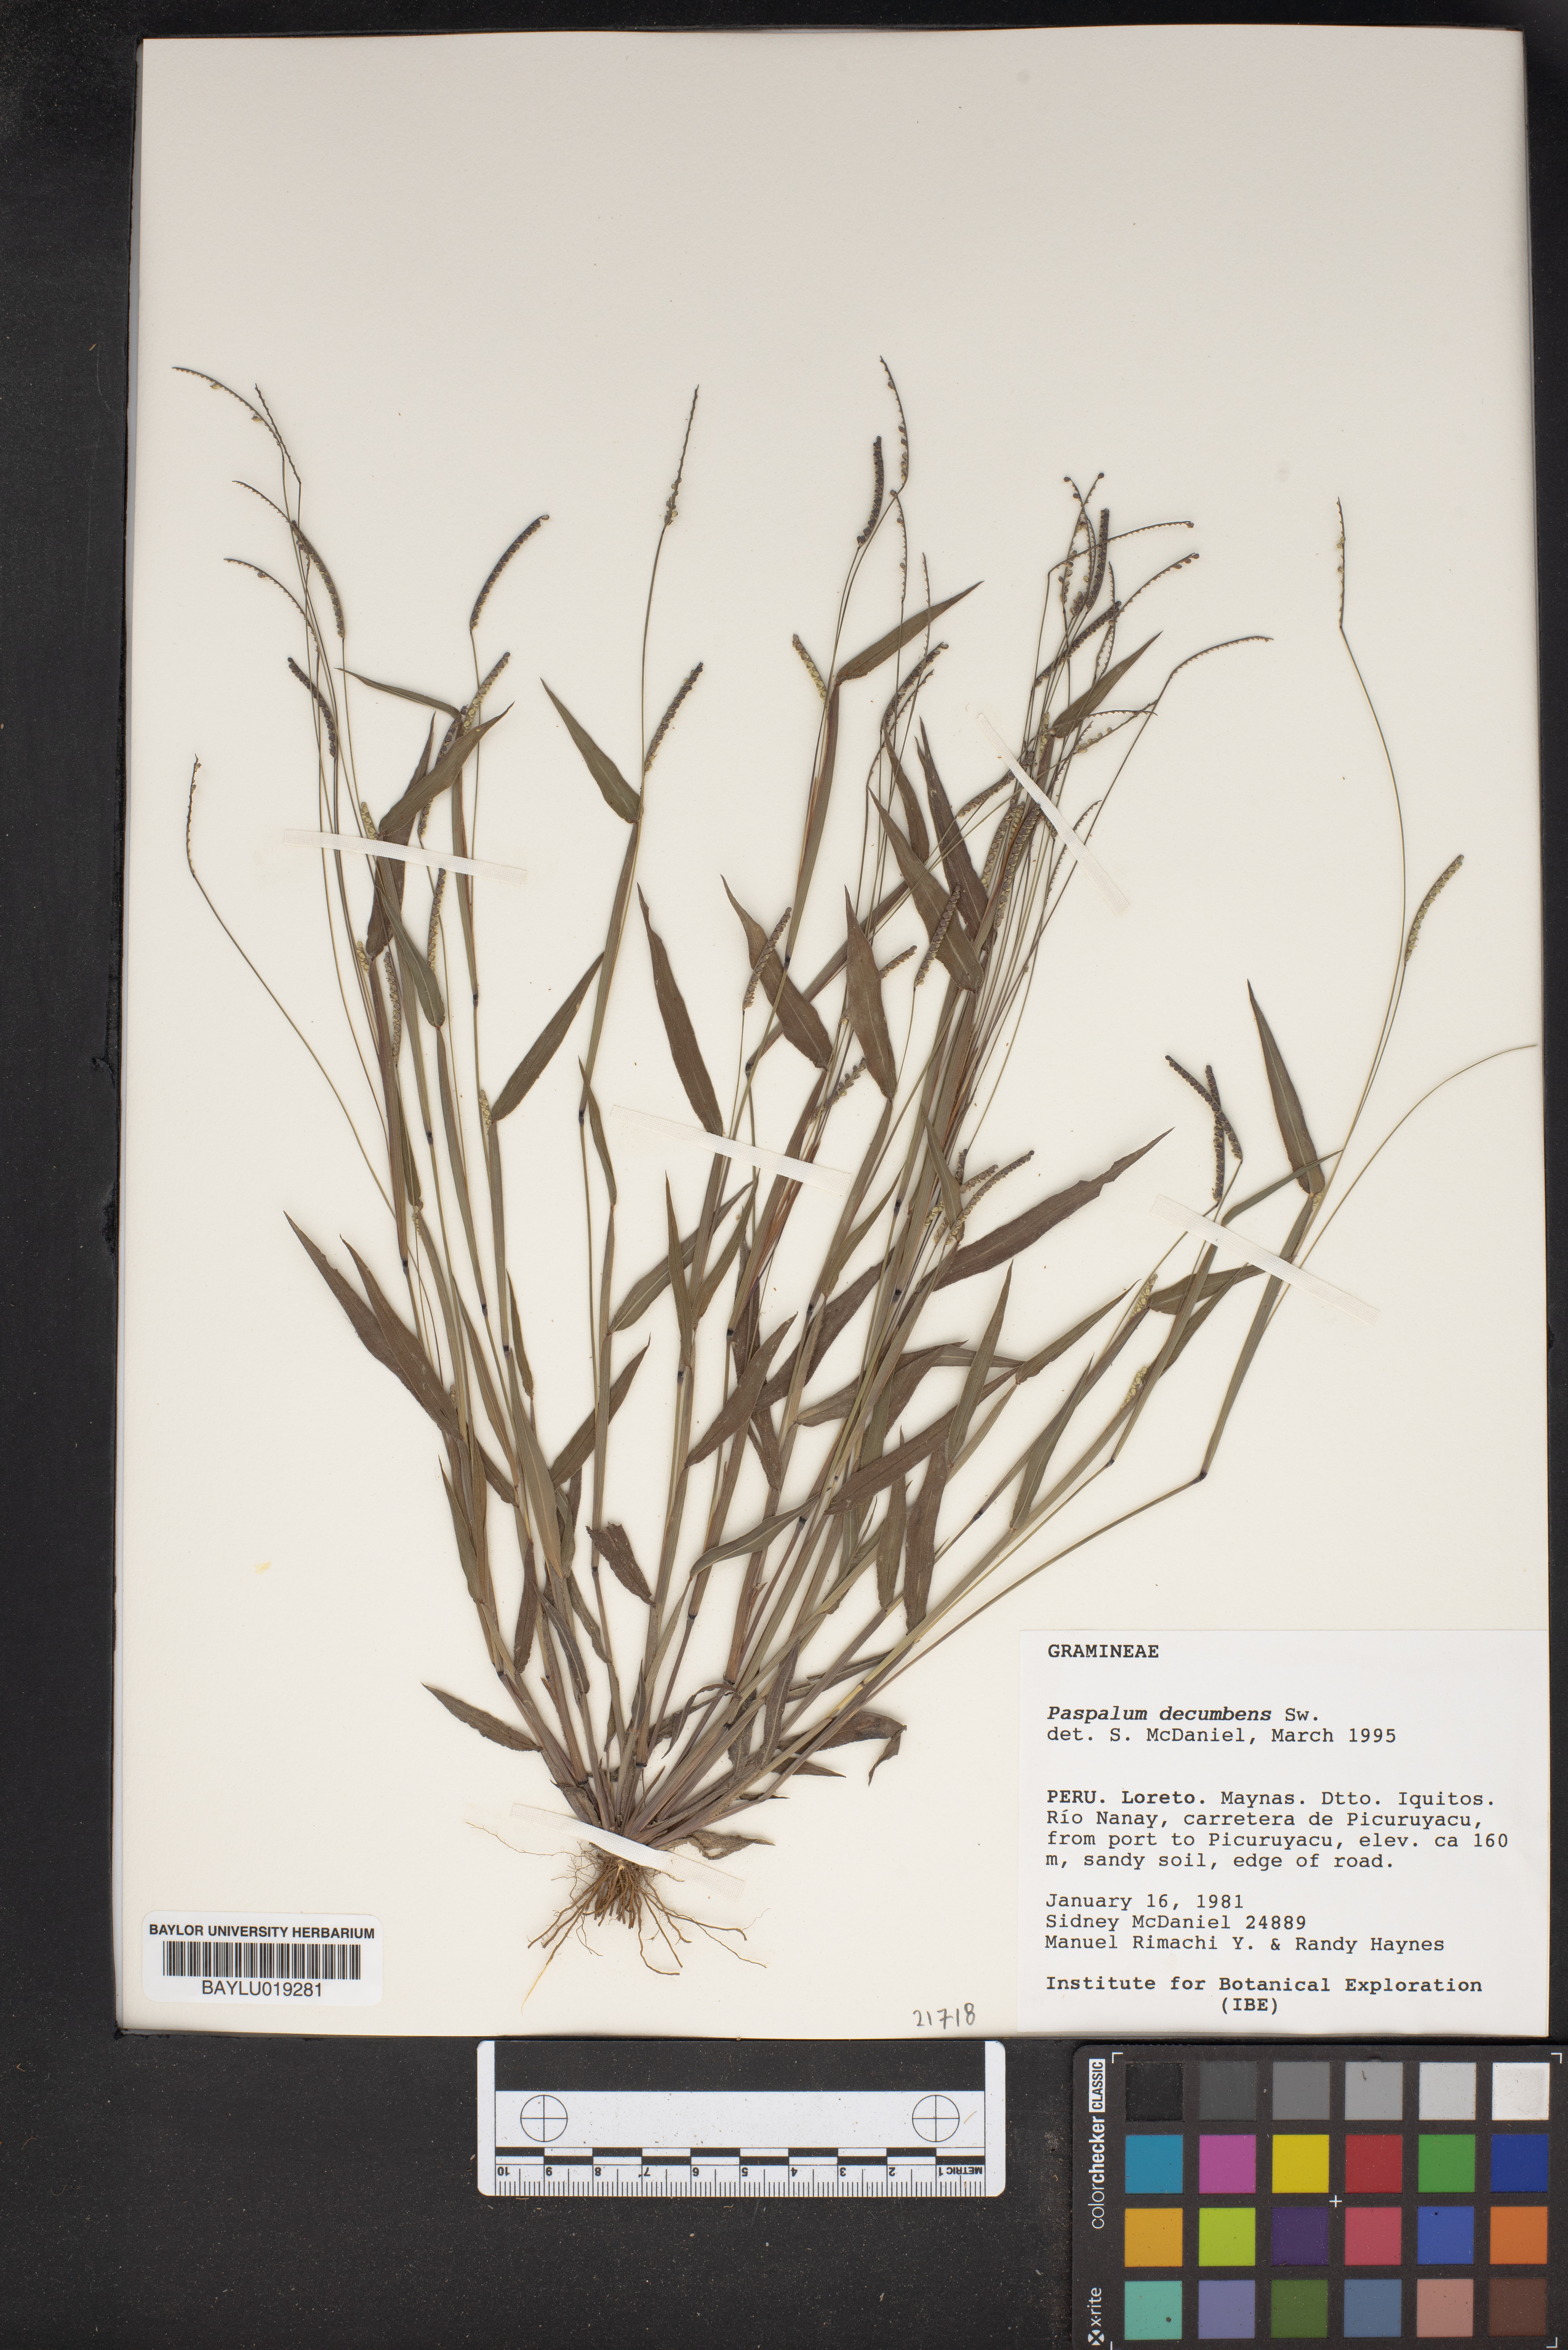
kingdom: Plantae
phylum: Tracheophyta
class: Liliopsida
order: Poales
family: Poaceae
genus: Paspalum
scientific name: Paspalum decumbens
